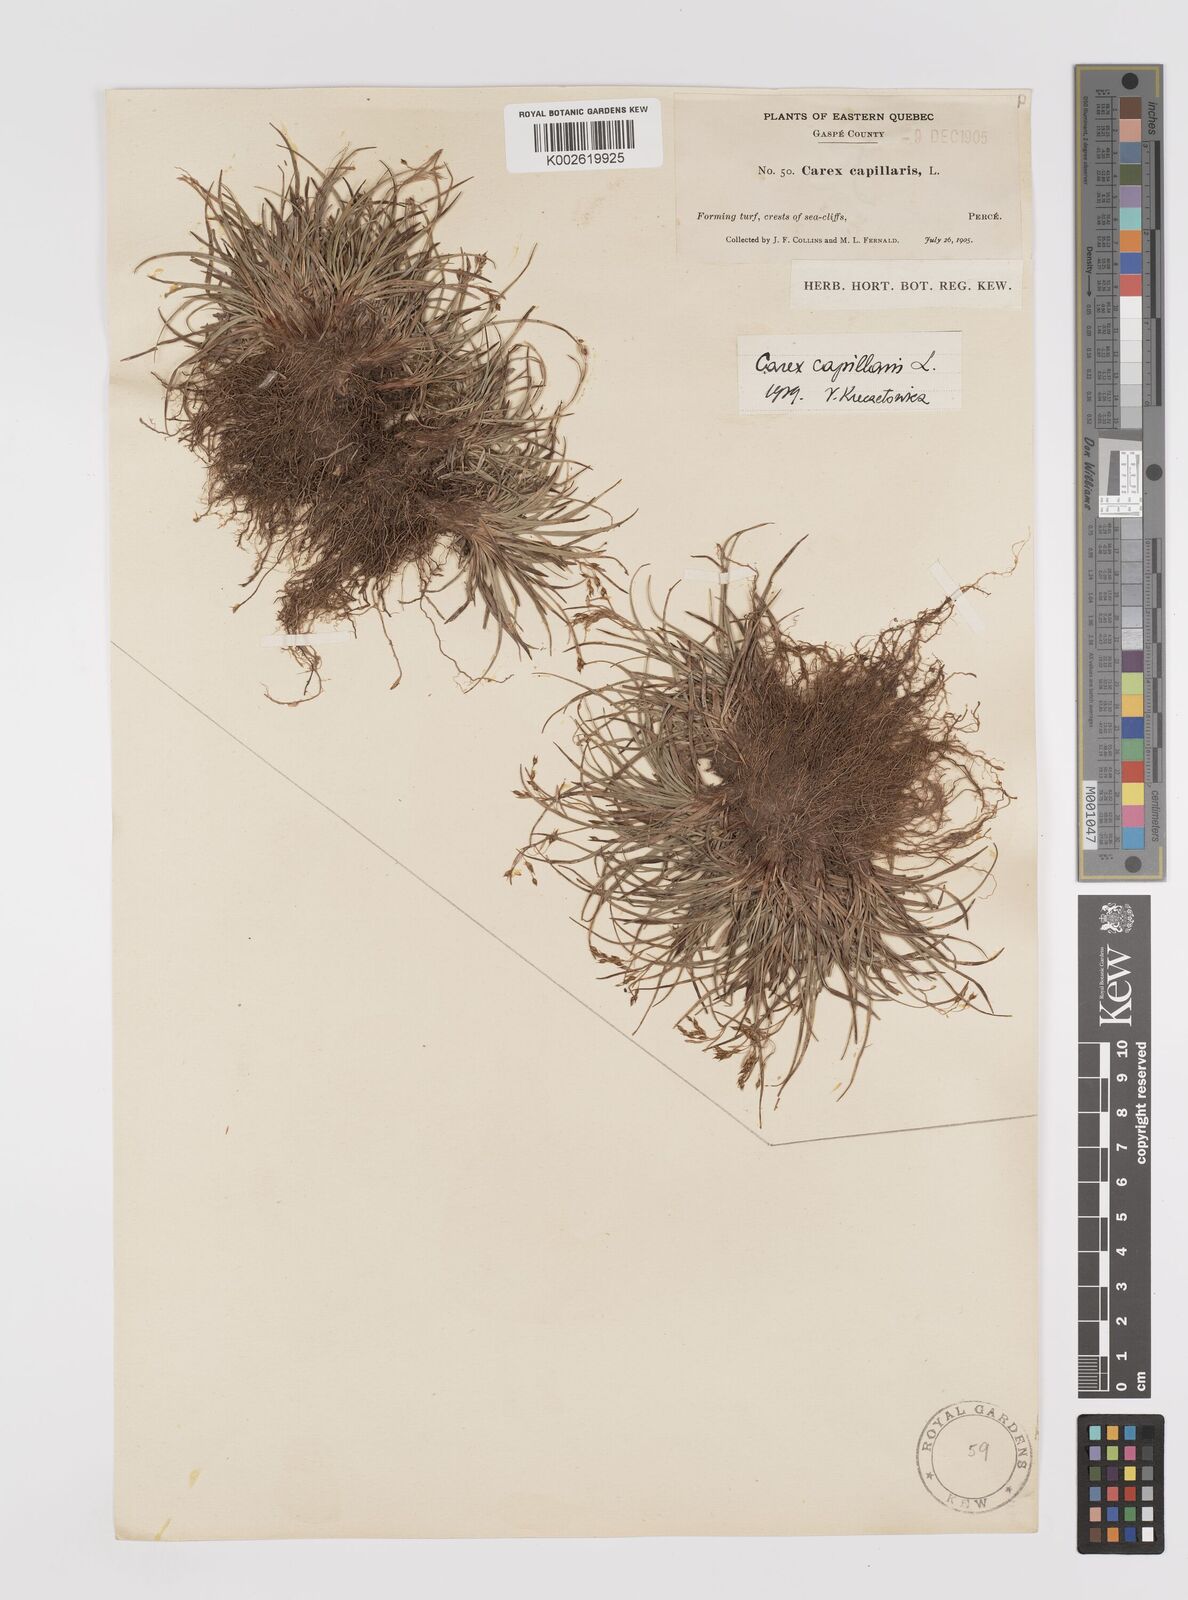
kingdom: Plantae
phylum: Tracheophyta
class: Liliopsida
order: Poales
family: Cyperaceae
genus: Carex
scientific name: Carex capillaris
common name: Hair sedge
